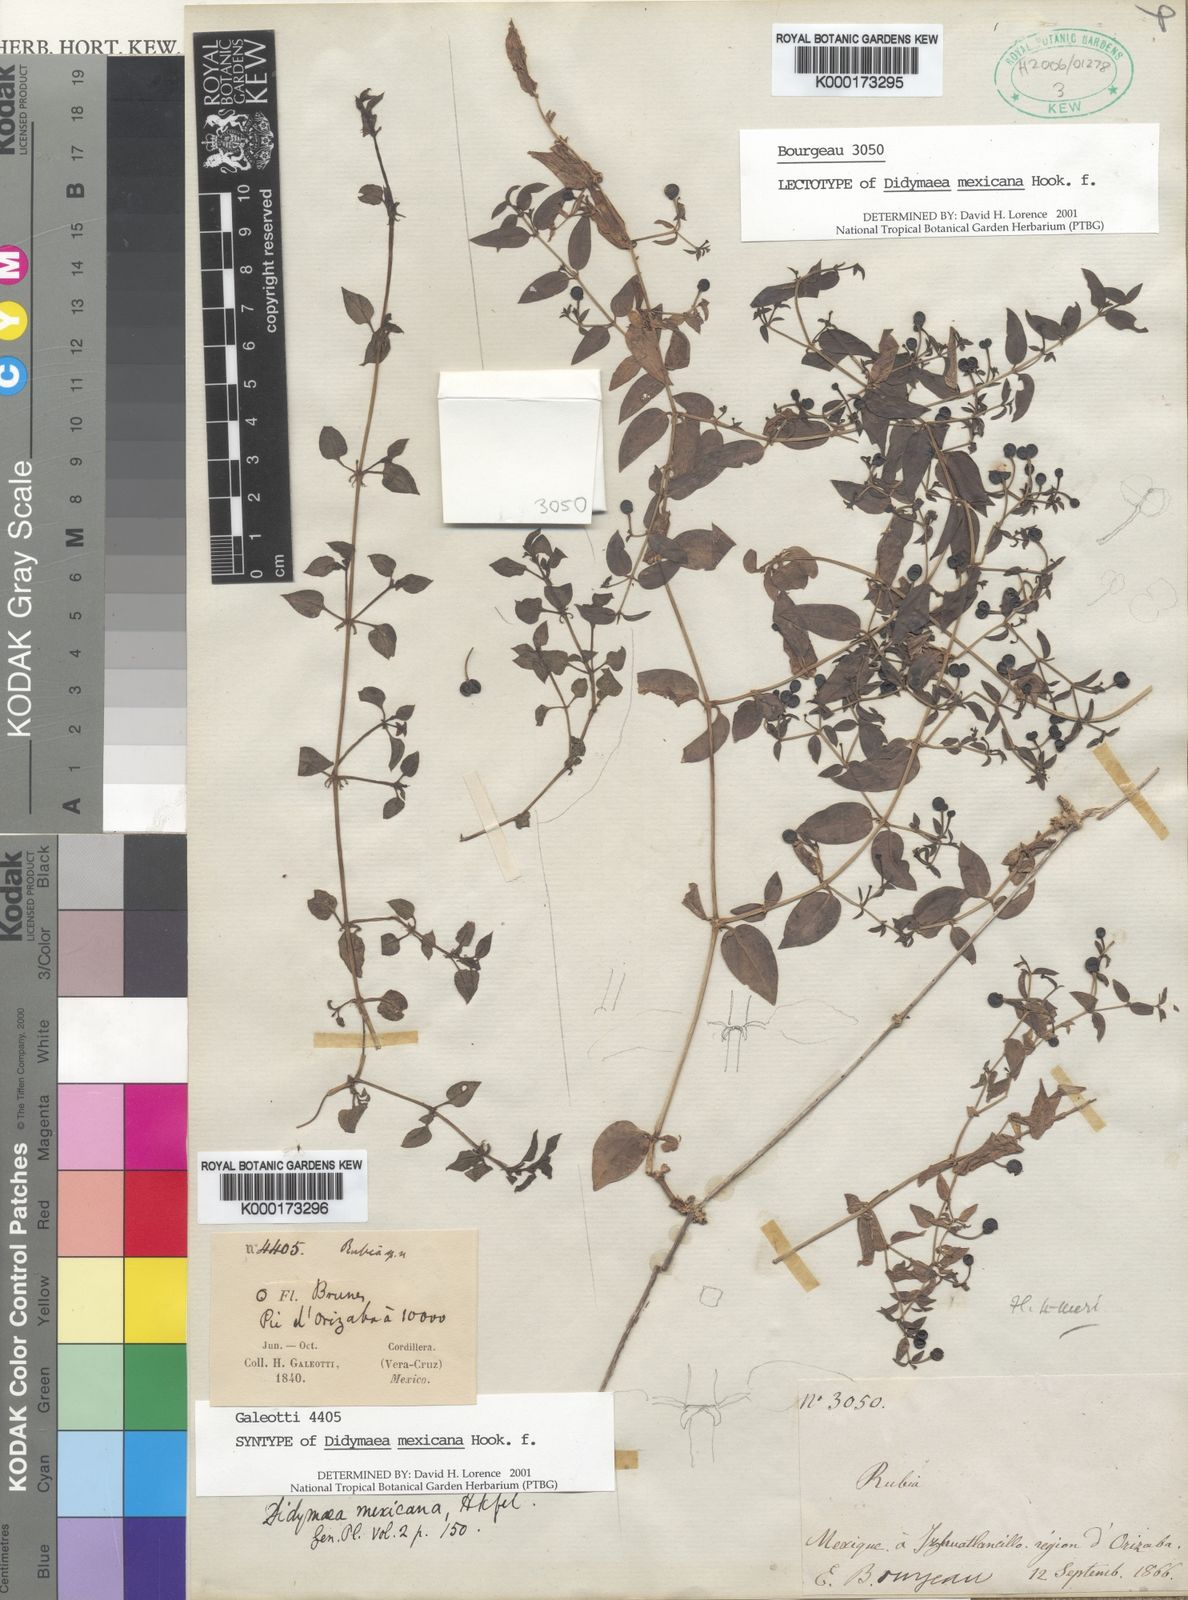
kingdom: Plantae
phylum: Tracheophyta
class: Magnoliopsida
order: Gentianales
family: Rubiaceae
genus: Didymaea
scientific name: Didymaea alsinoides
